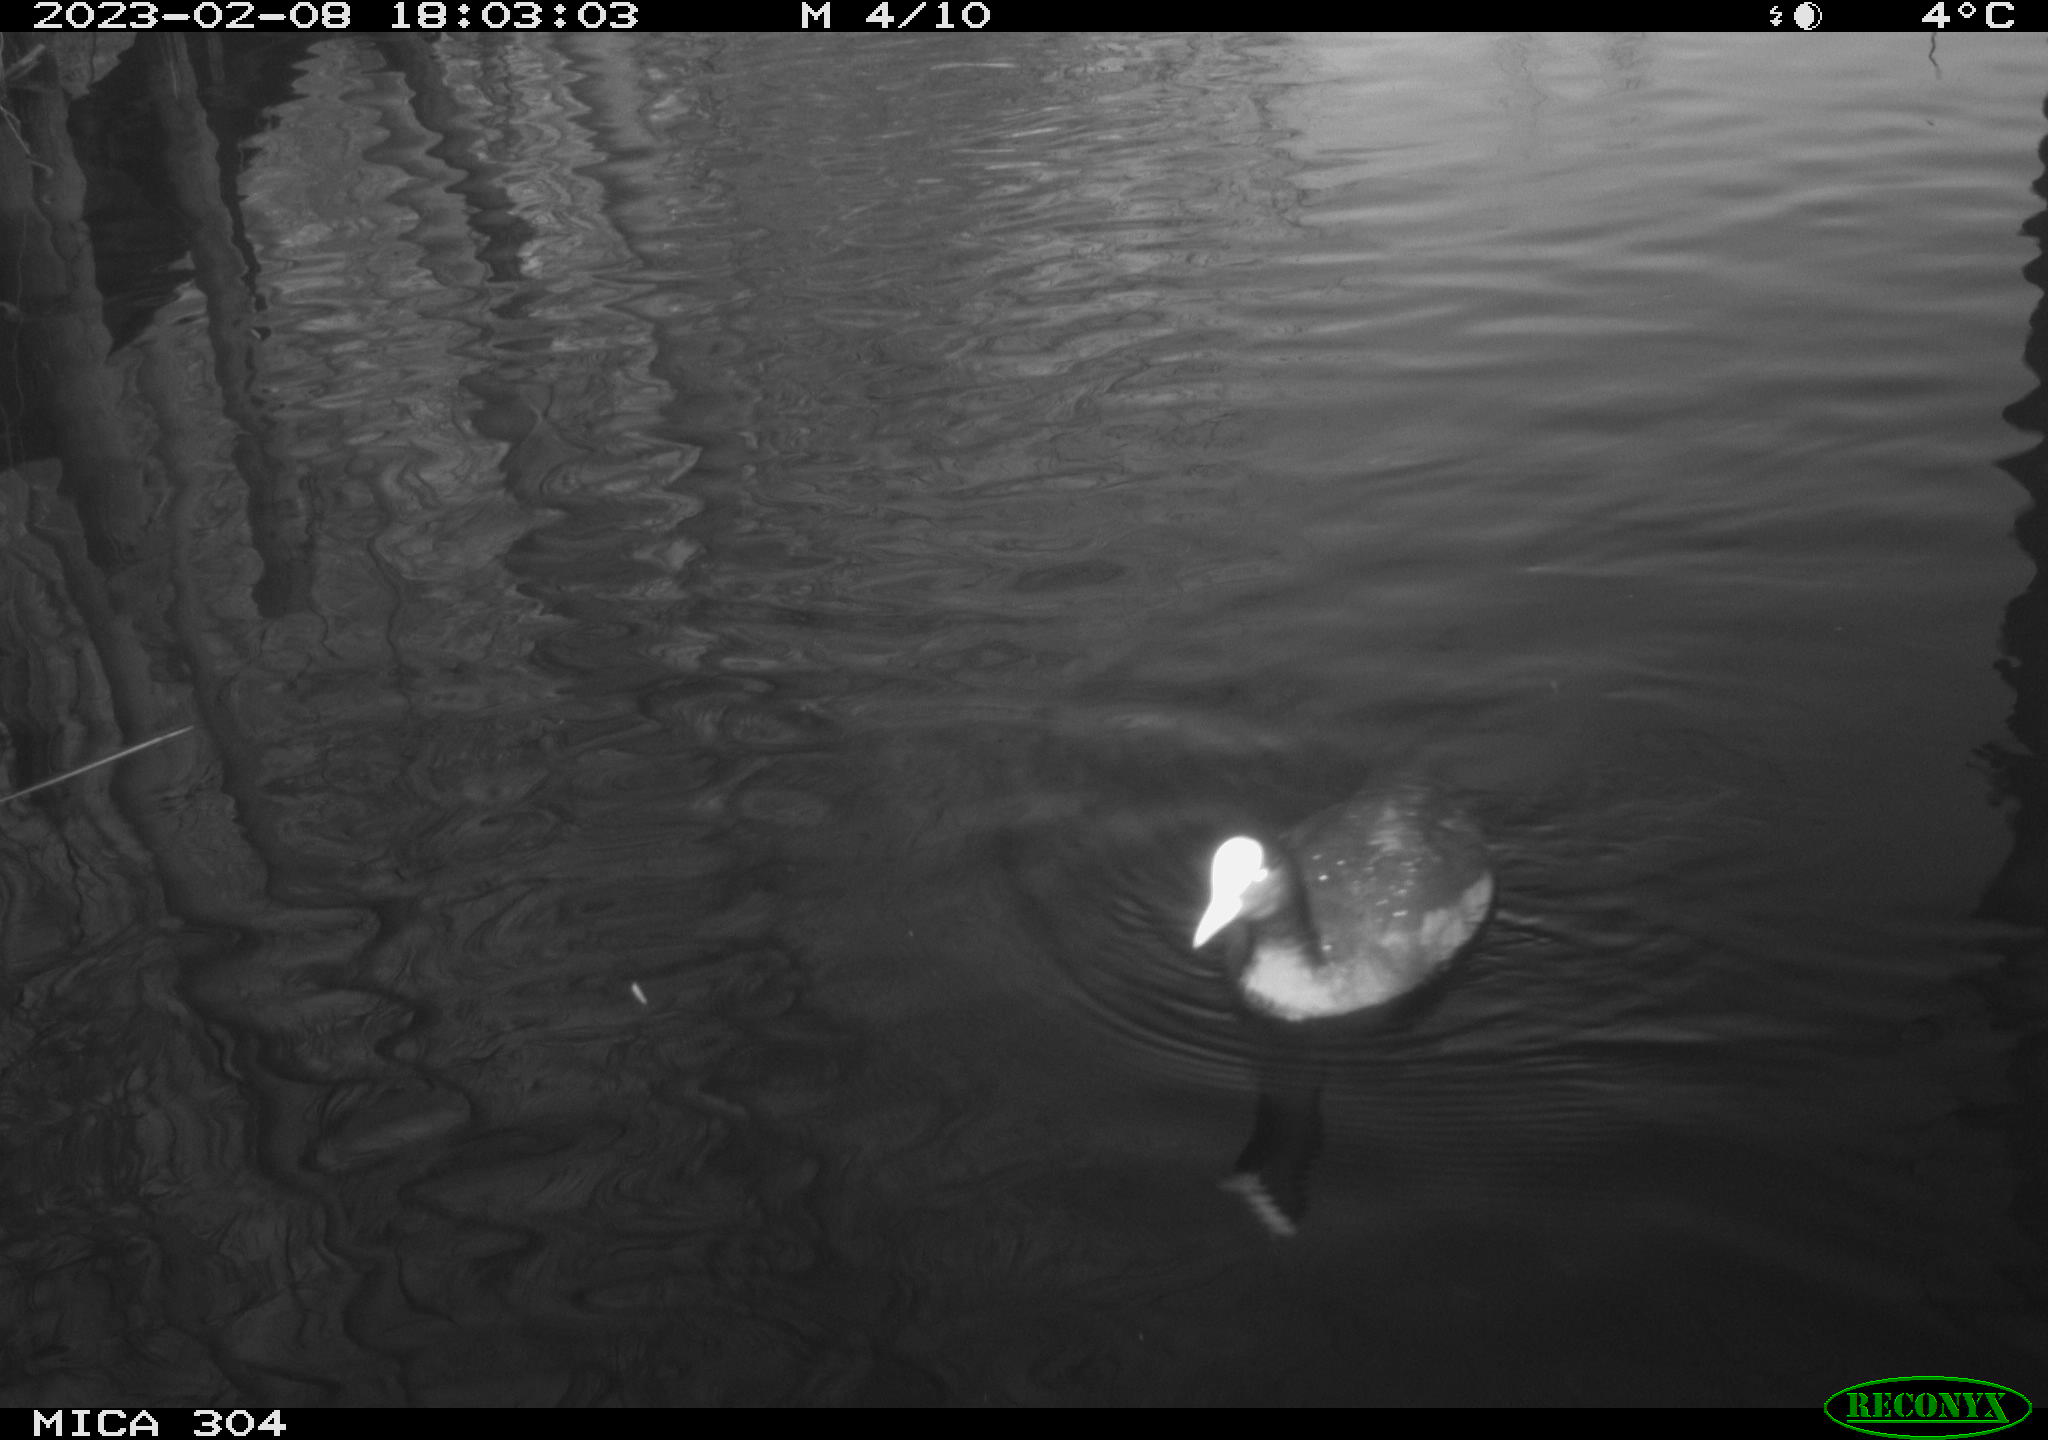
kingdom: Animalia
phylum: Chordata
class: Aves
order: Gruiformes
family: Rallidae
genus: Fulica
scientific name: Fulica atra
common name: Eurasian coot
